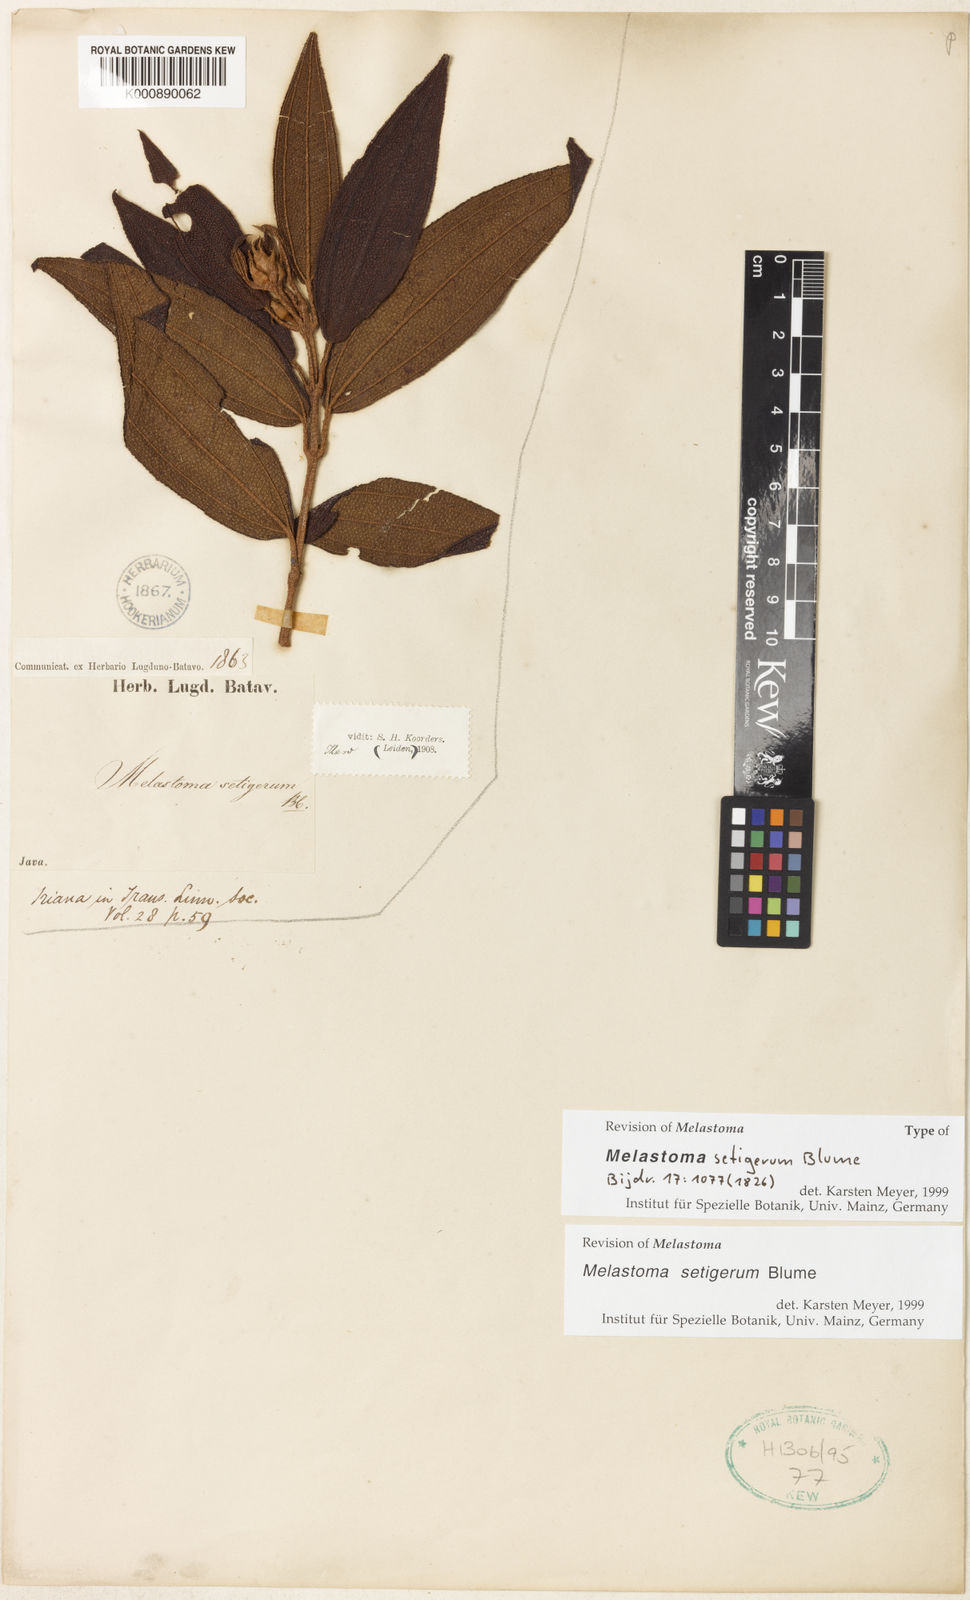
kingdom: Plantae
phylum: Tracheophyta
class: Magnoliopsida
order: Myrtales
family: Melastomataceae
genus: Melastoma
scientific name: Melastoma malabathricum
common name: Indian-rhododendron
